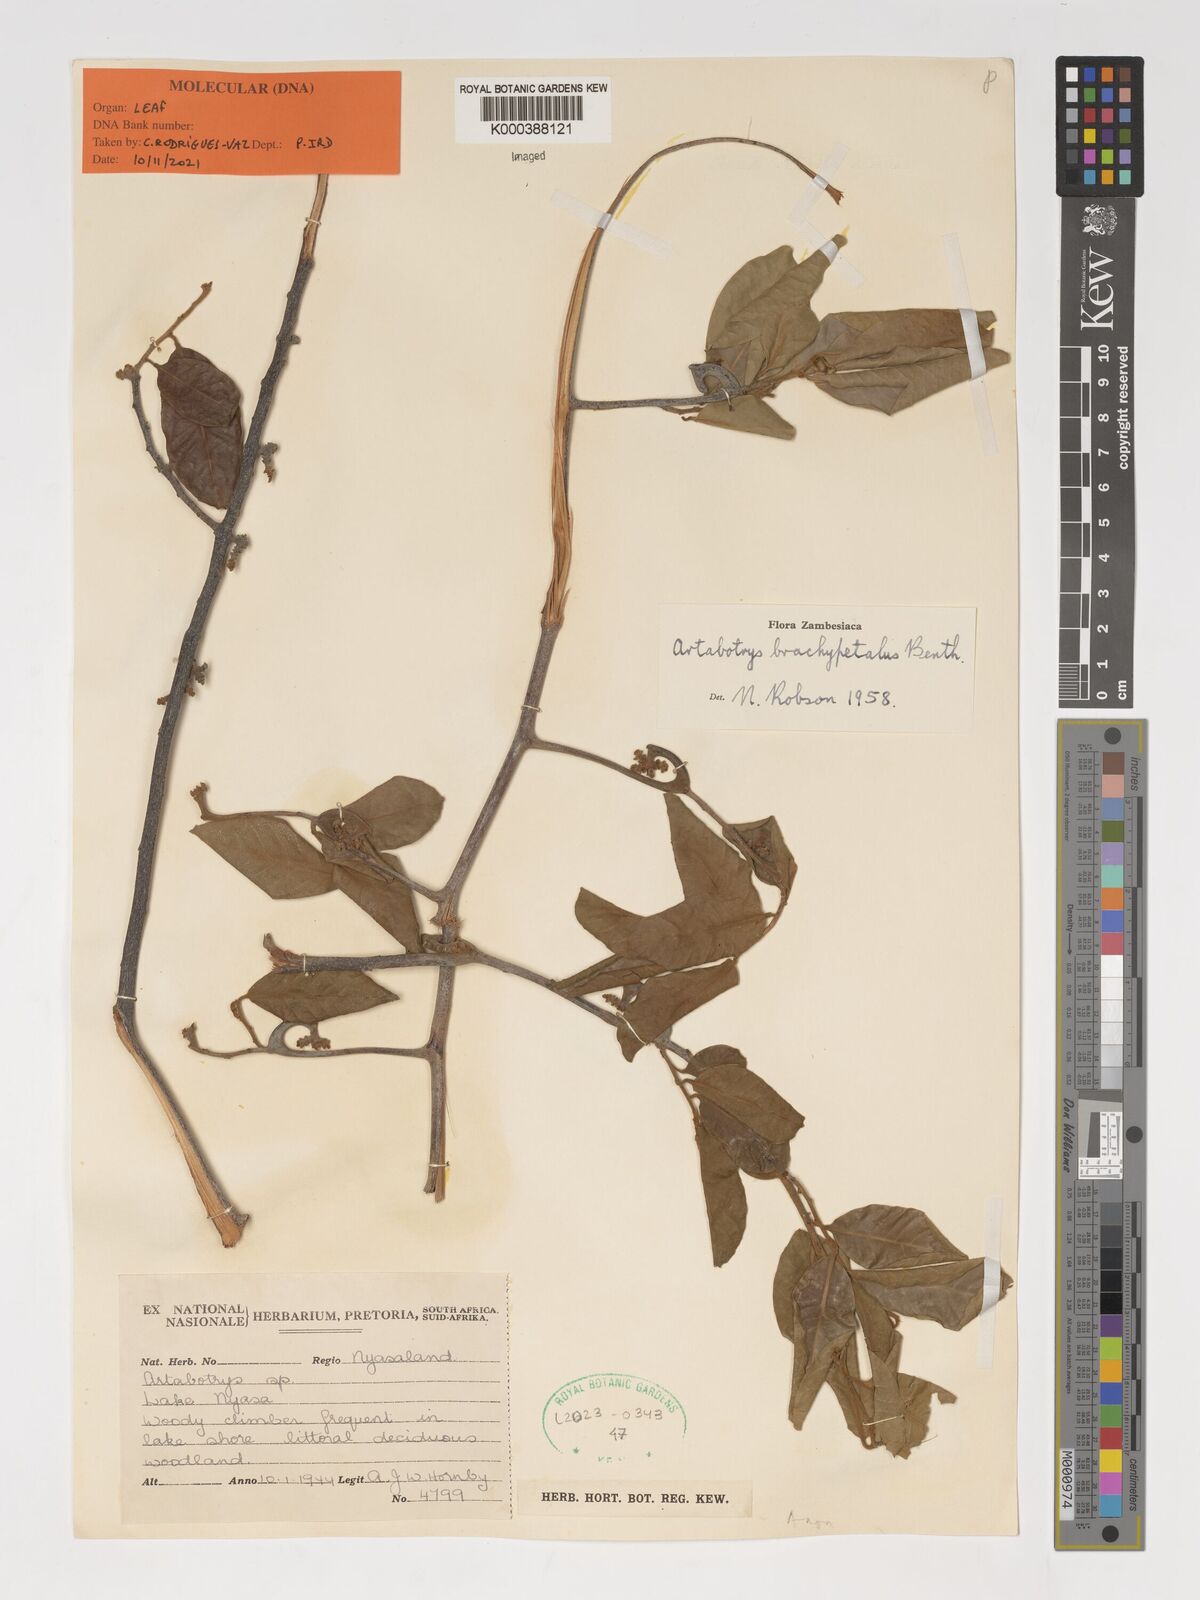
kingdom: Plantae
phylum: Tracheophyta
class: Magnoliopsida
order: Magnoliales
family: Annonaceae
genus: Artabotrys
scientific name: Artabotrys brachypetalus
